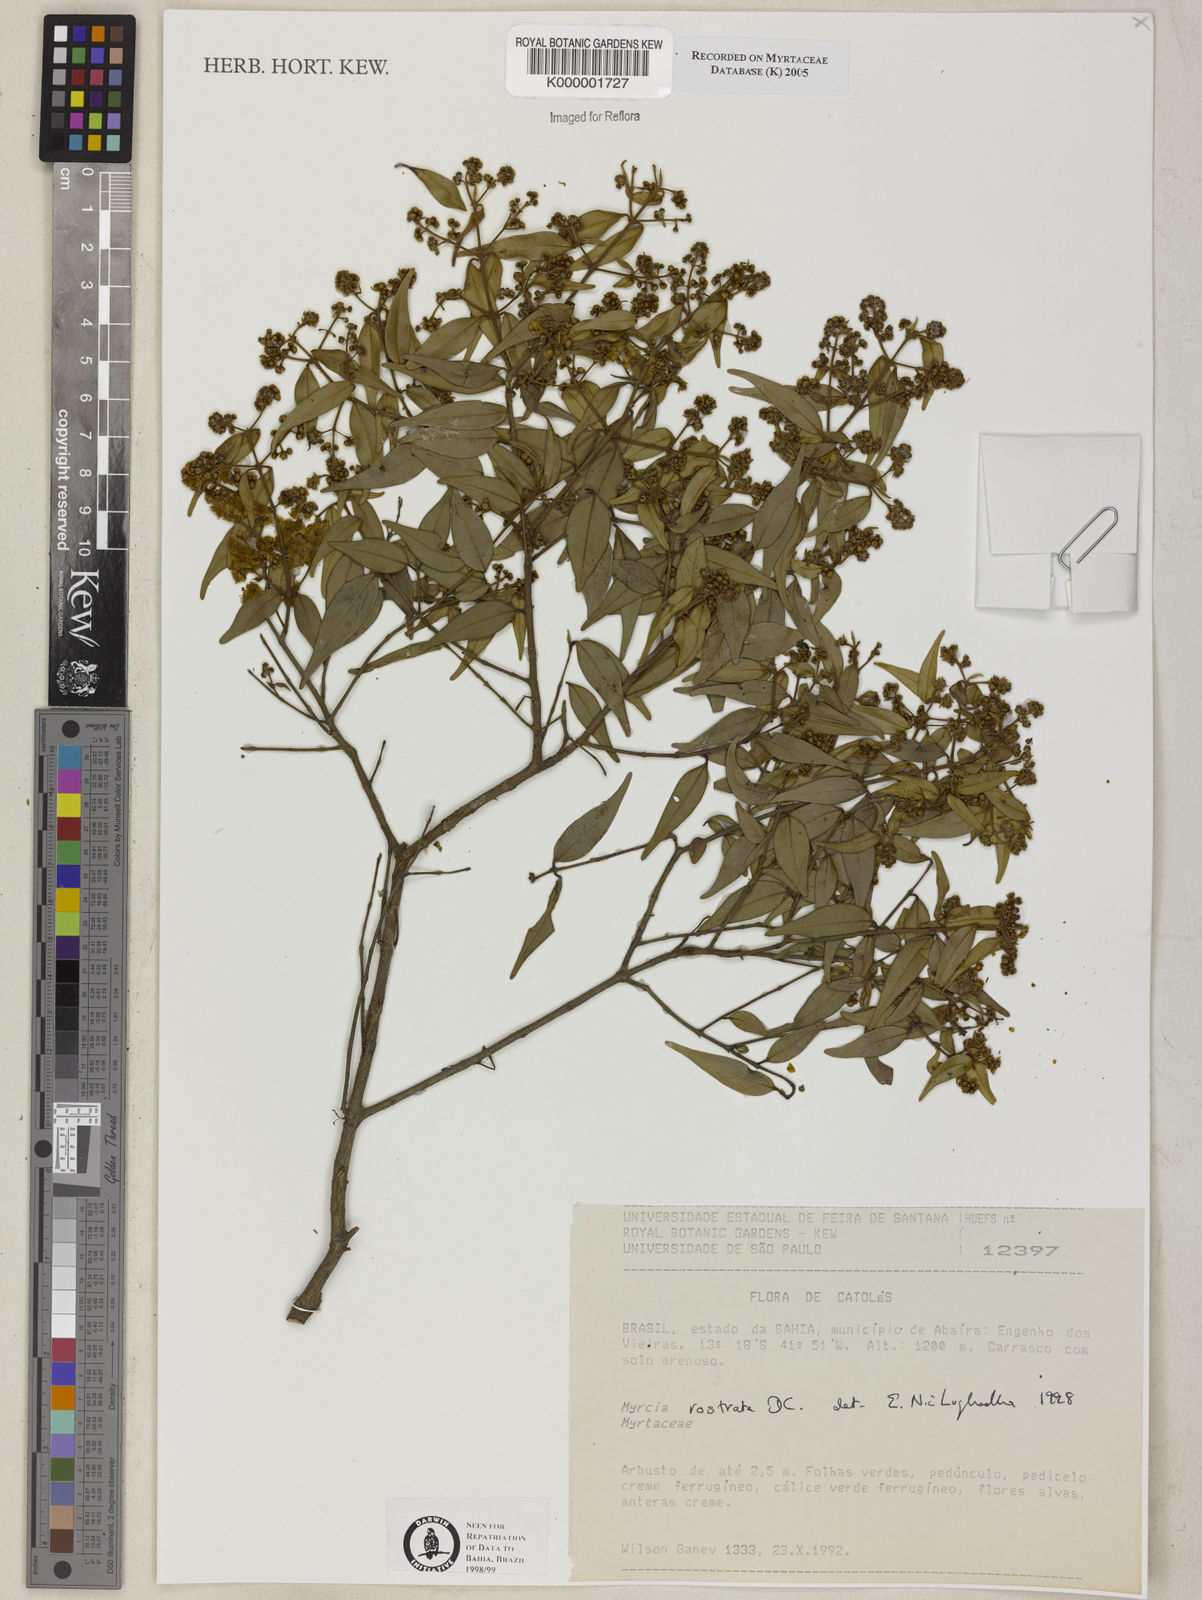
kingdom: Plantae
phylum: Tracheophyta
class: Magnoliopsida
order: Myrtales
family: Myrtaceae
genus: Myrcia
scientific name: Myrcia splendens
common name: Surinam cherry
